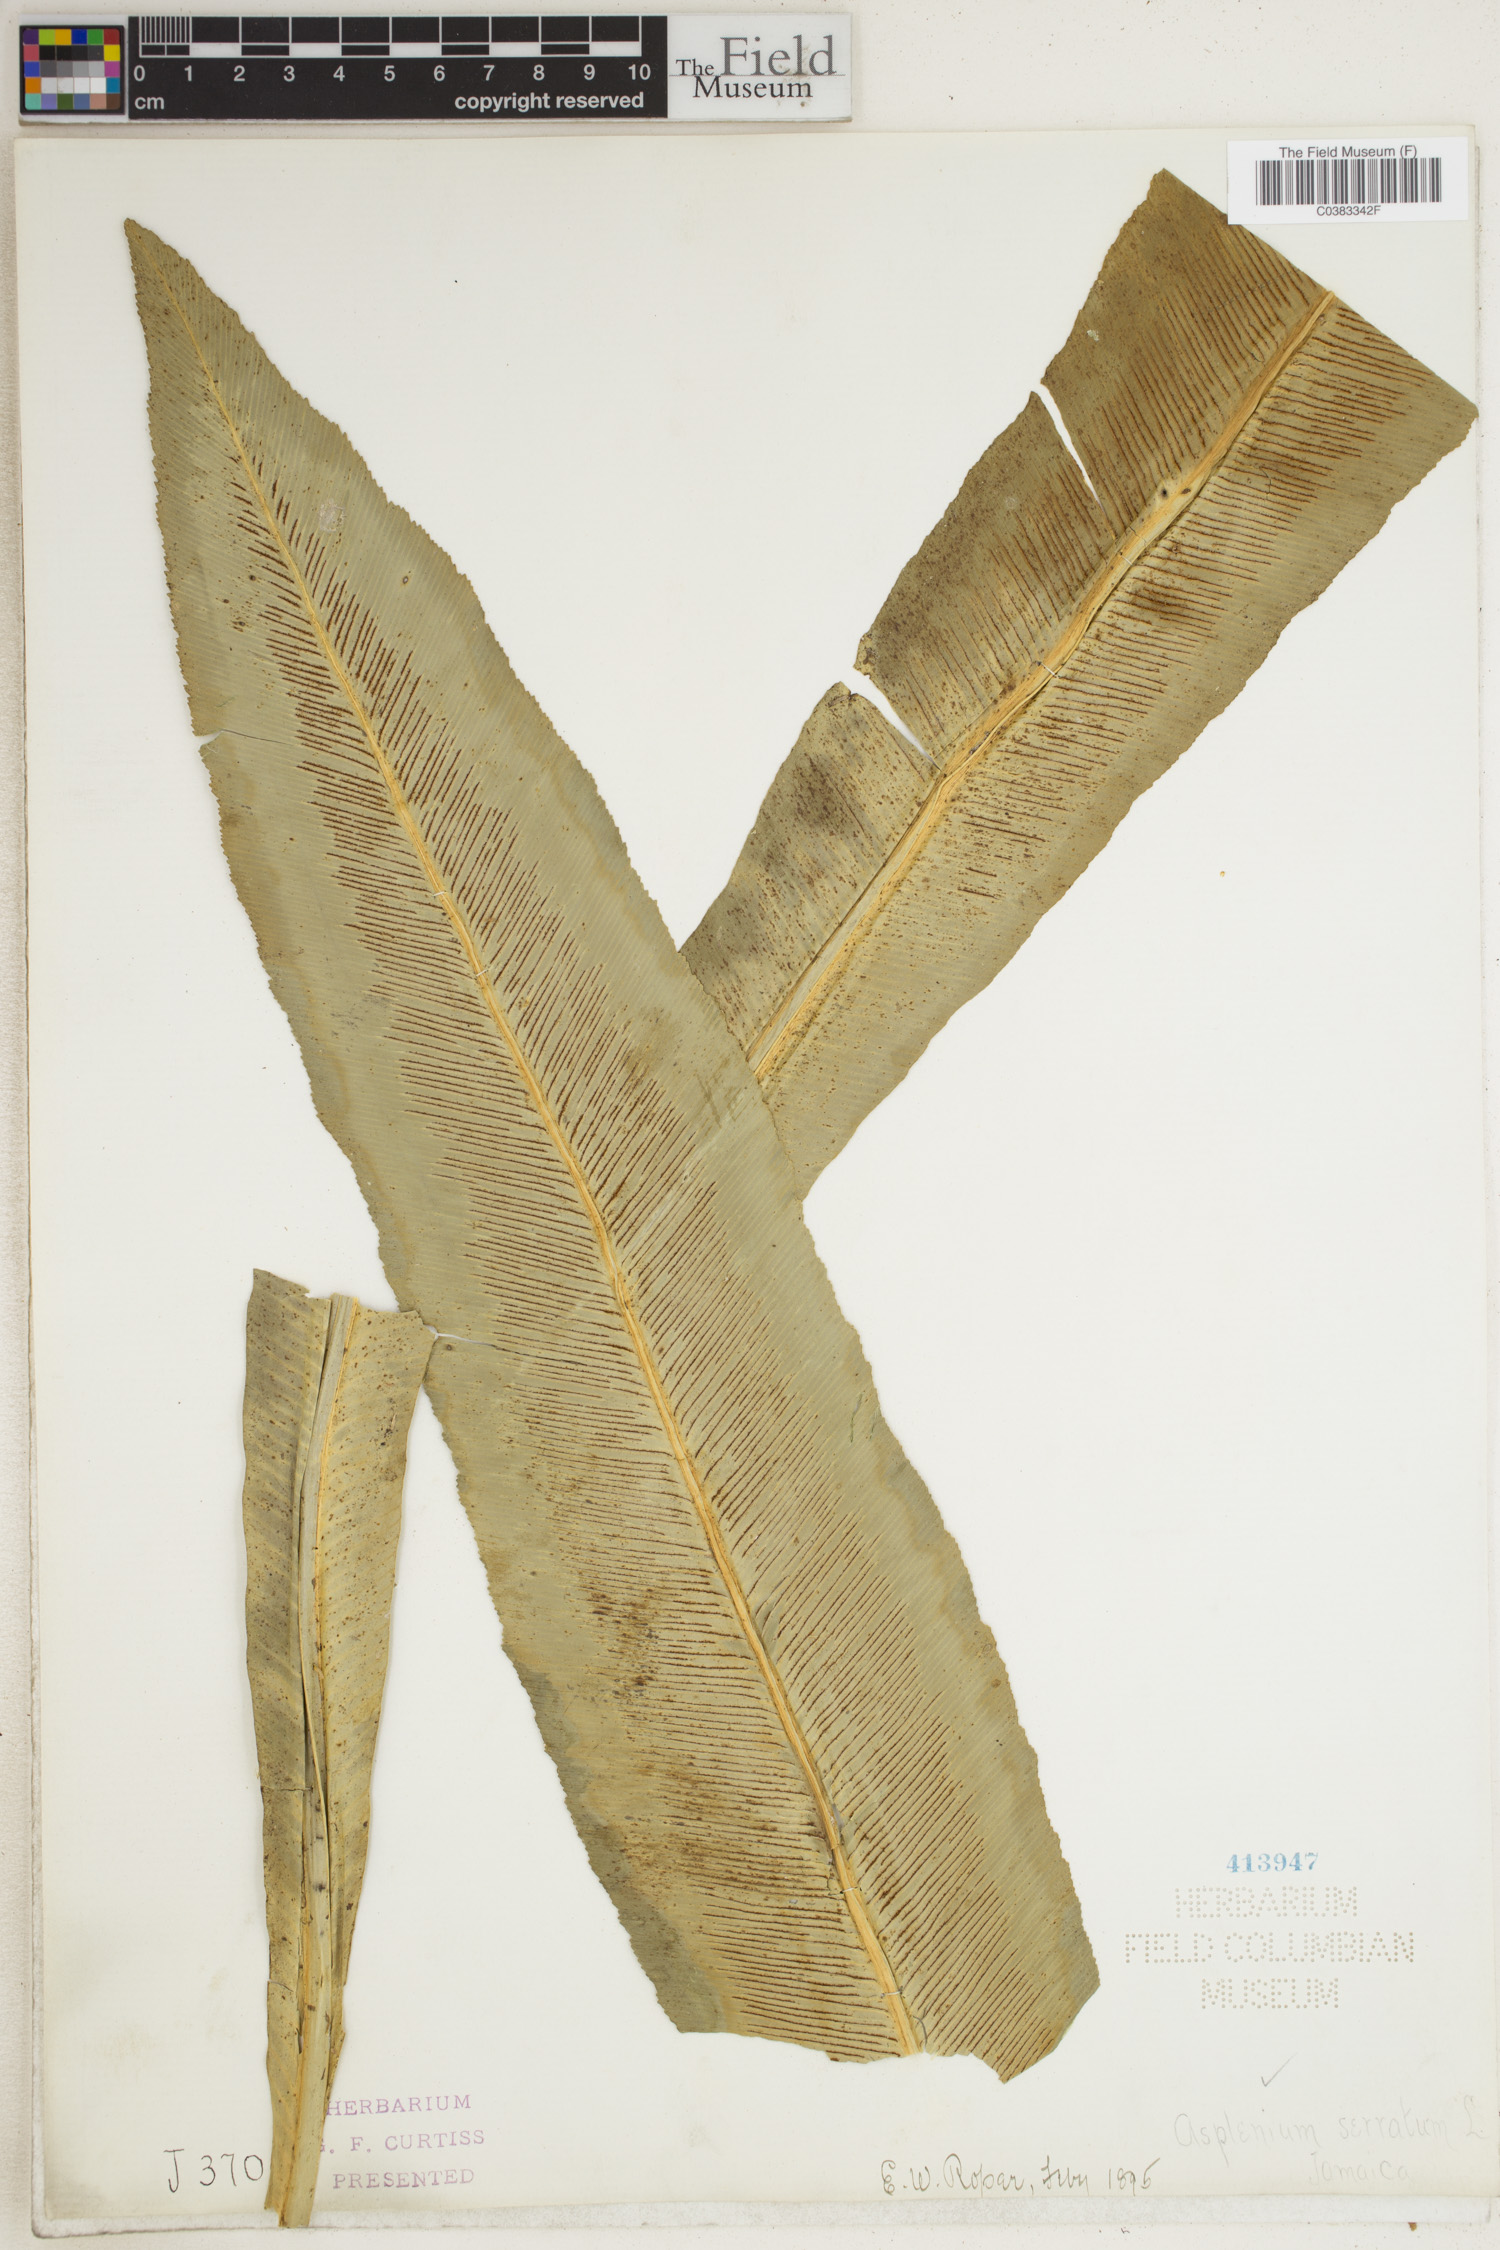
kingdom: Plantae
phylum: Tracheophyta
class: Polypodiopsida
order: Polypodiales
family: Aspleniaceae
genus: Asplenium
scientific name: Asplenium serratum
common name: Wild birdnest fern
